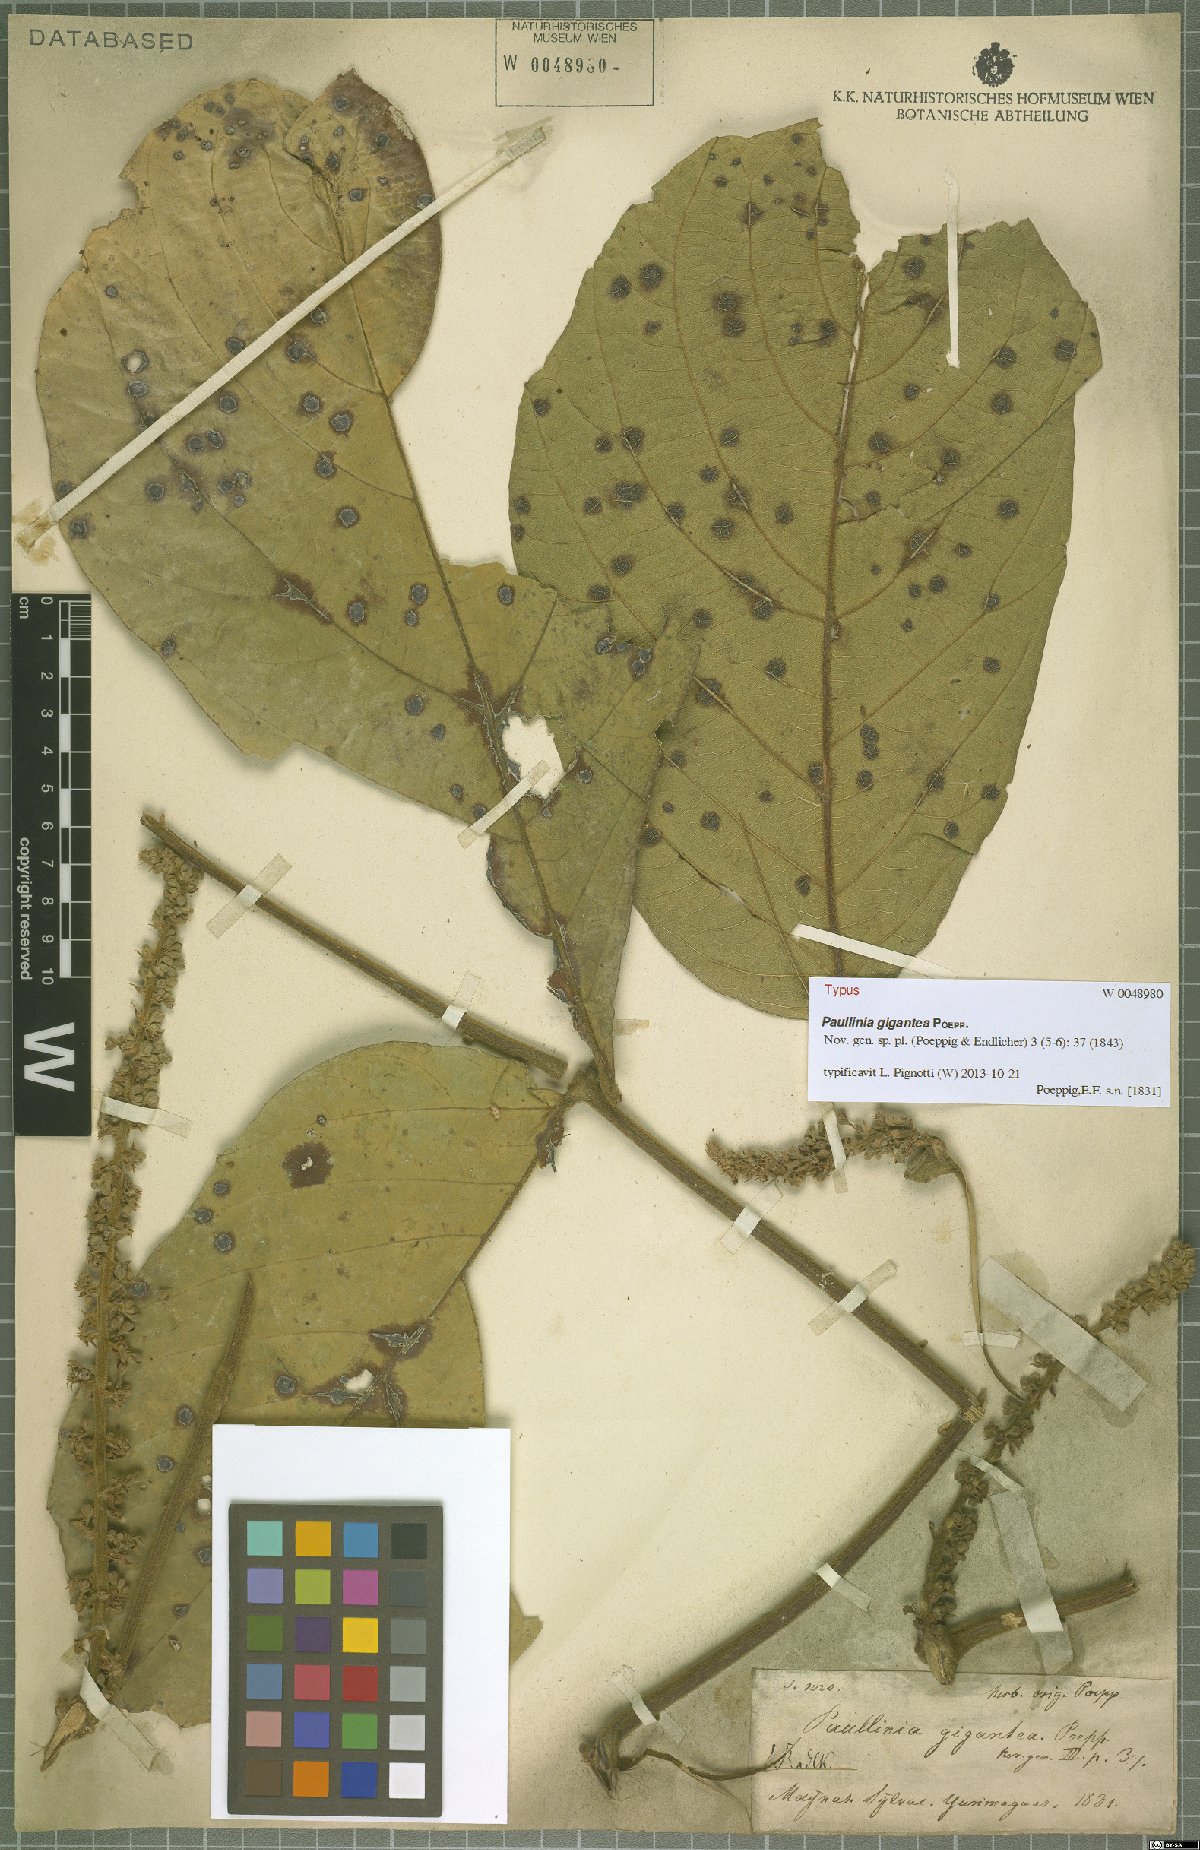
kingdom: Plantae
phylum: Tracheophyta
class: Magnoliopsida
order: Sapindales
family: Sapindaceae
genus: Paullinia
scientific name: Paullinia gigantea
